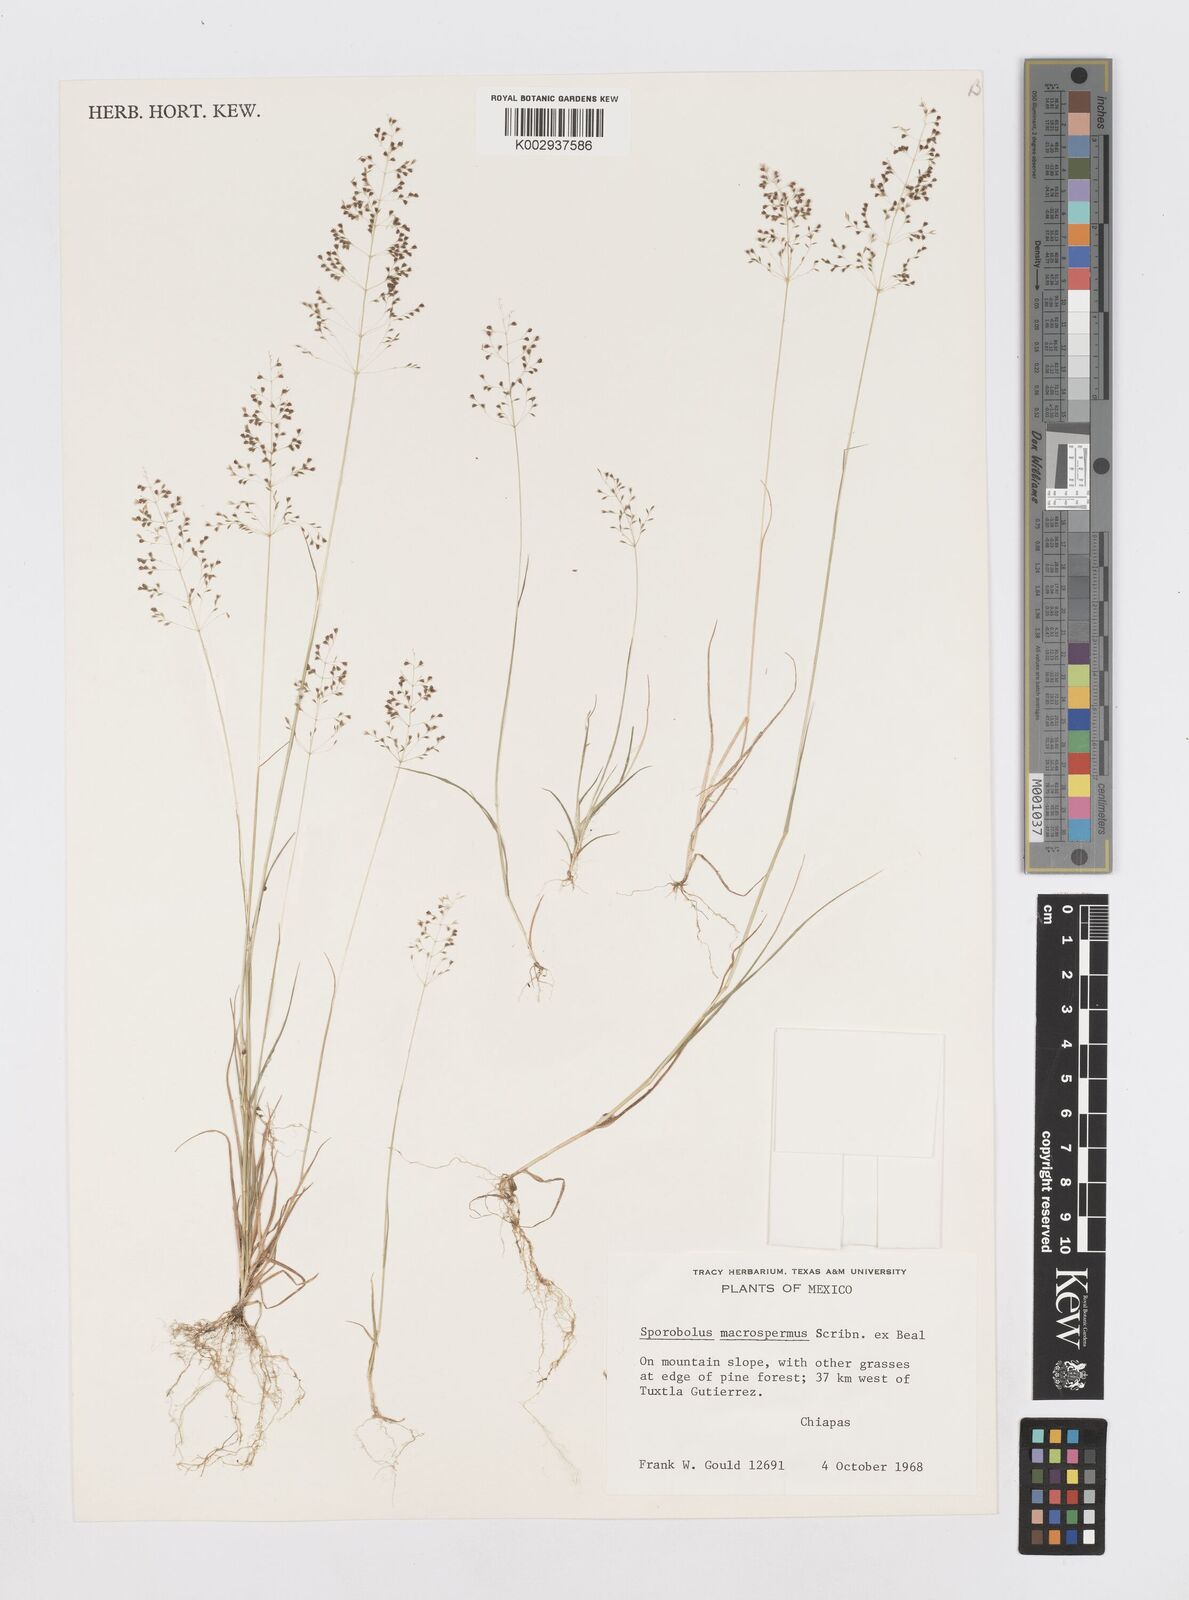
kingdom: Plantae
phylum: Tracheophyta
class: Liliopsida
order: Poales
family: Poaceae
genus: Sporobolus
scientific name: Sporobolus macrospermus
